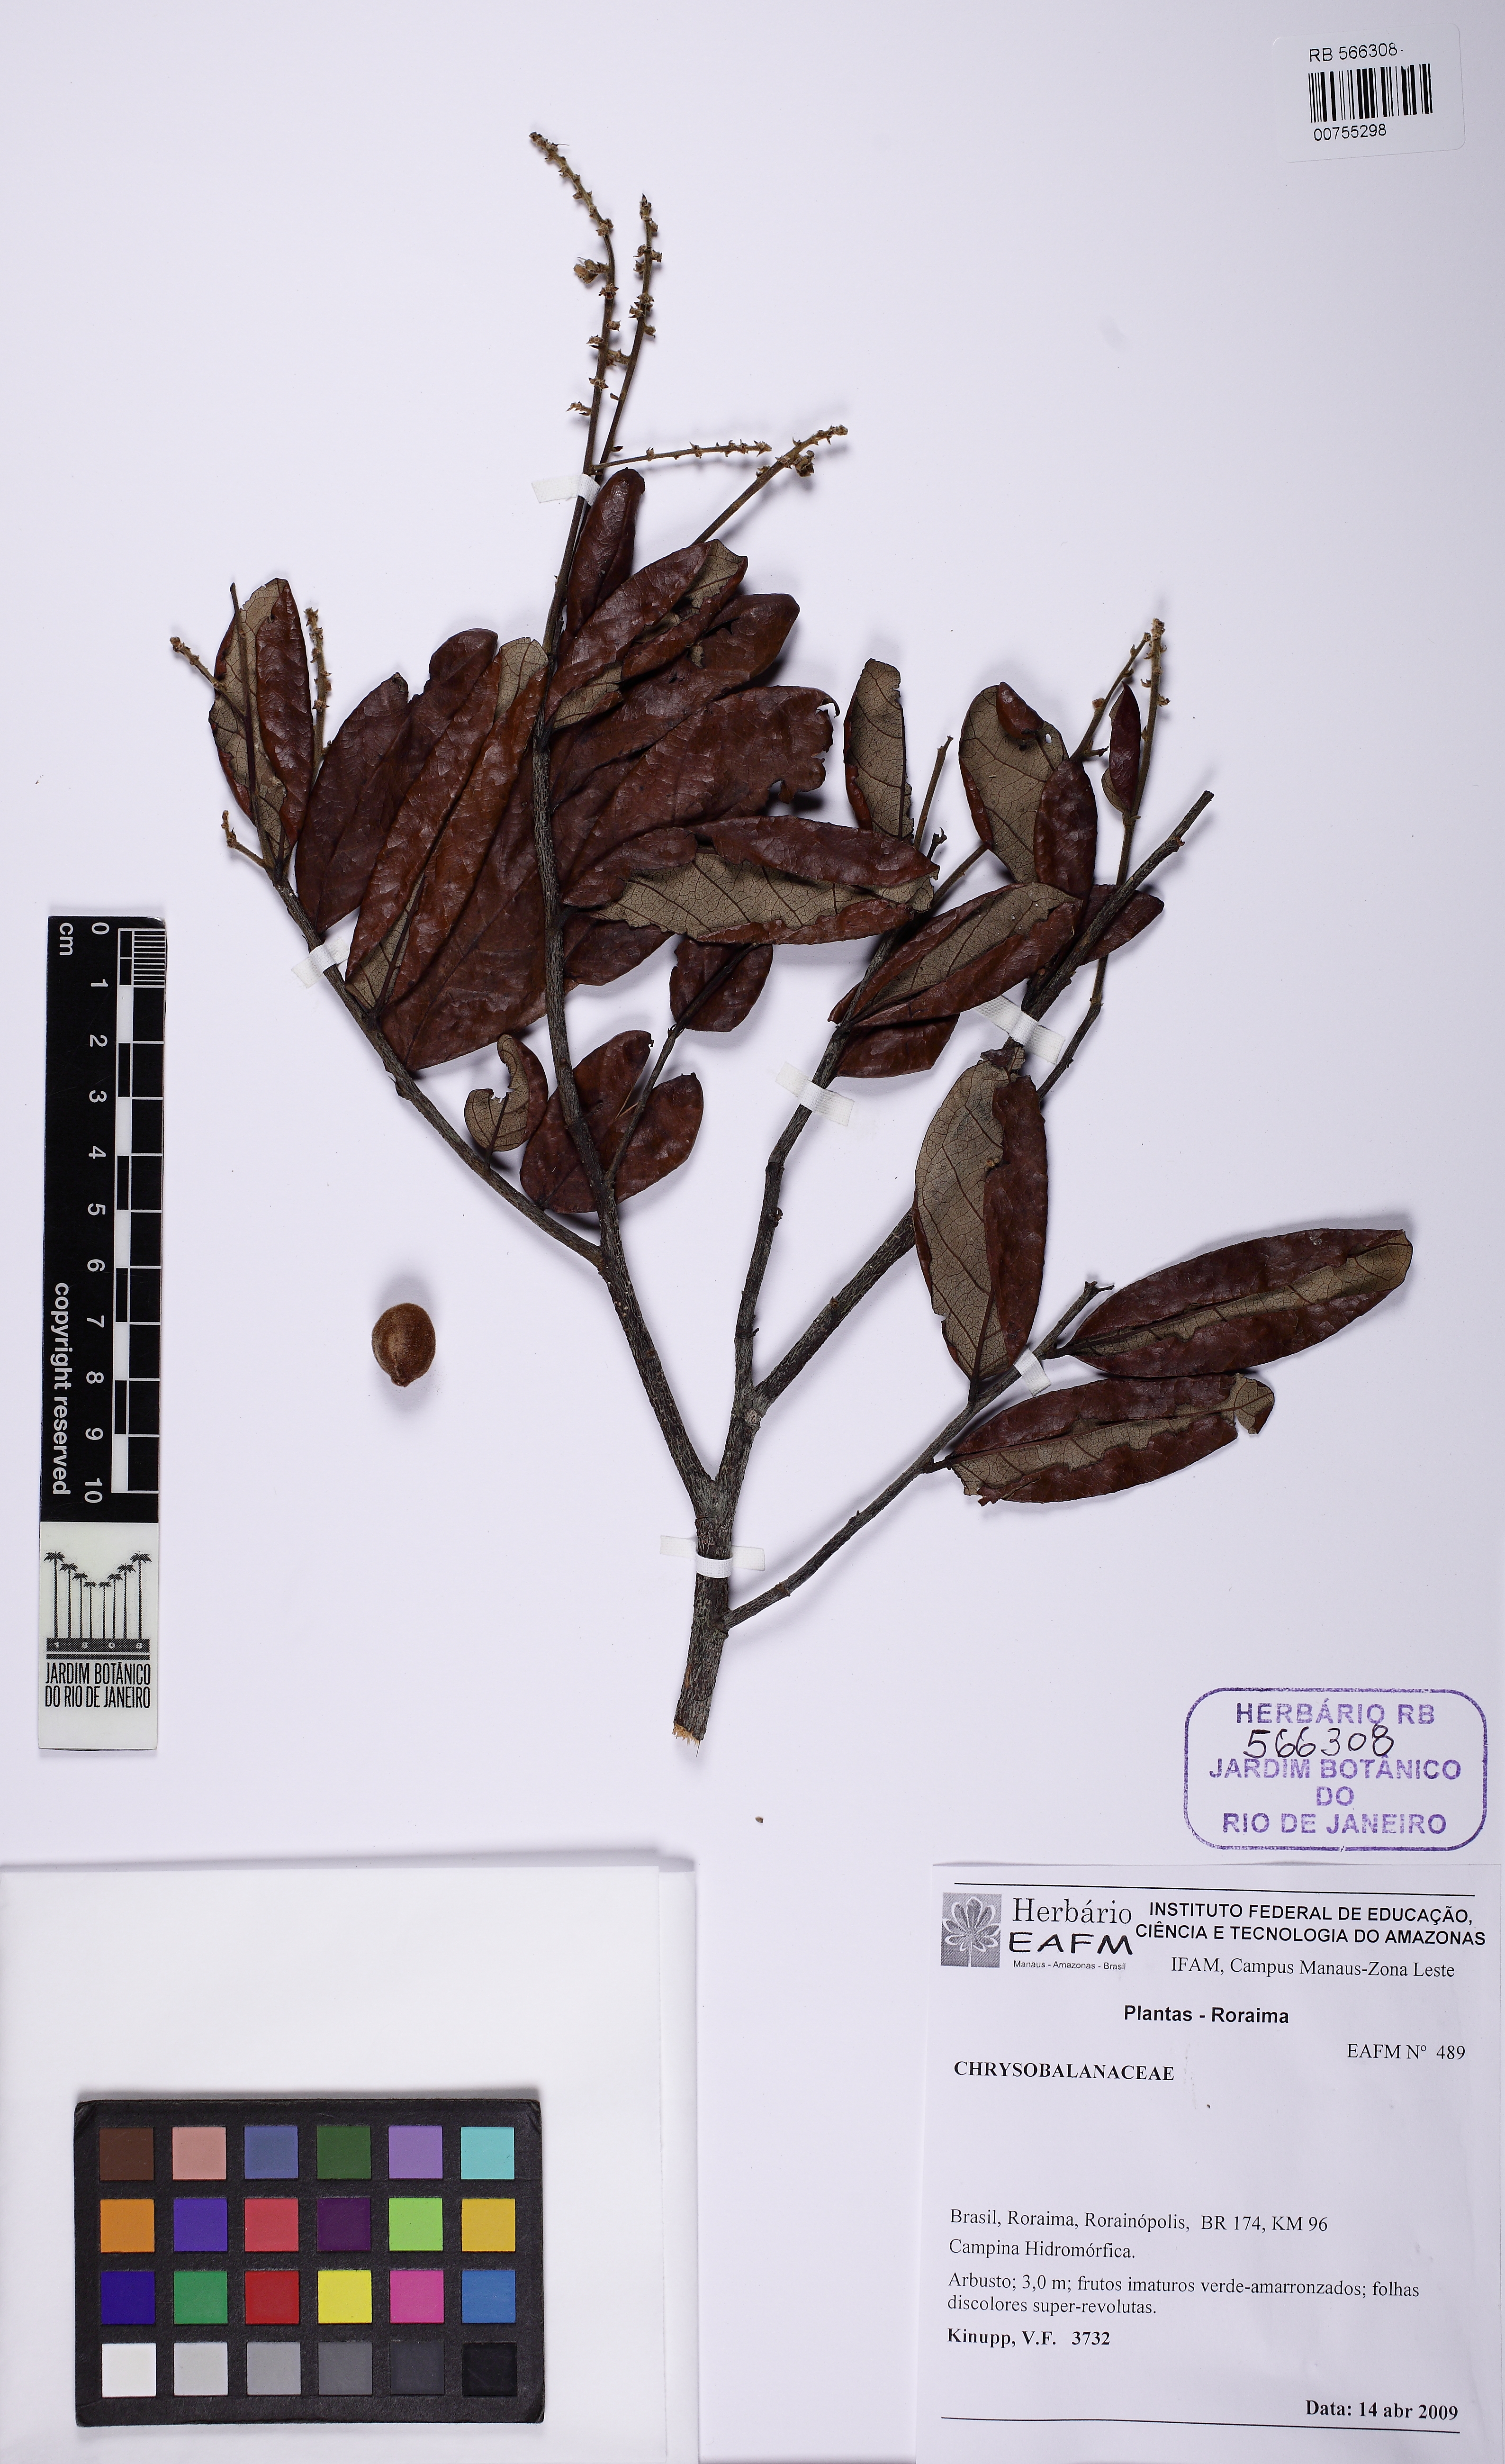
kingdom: Plantae
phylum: Tracheophyta
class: Magnoliopsida
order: Malpighiales
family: Chrysobalanaceae
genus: Licania
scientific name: Licania stewardii
